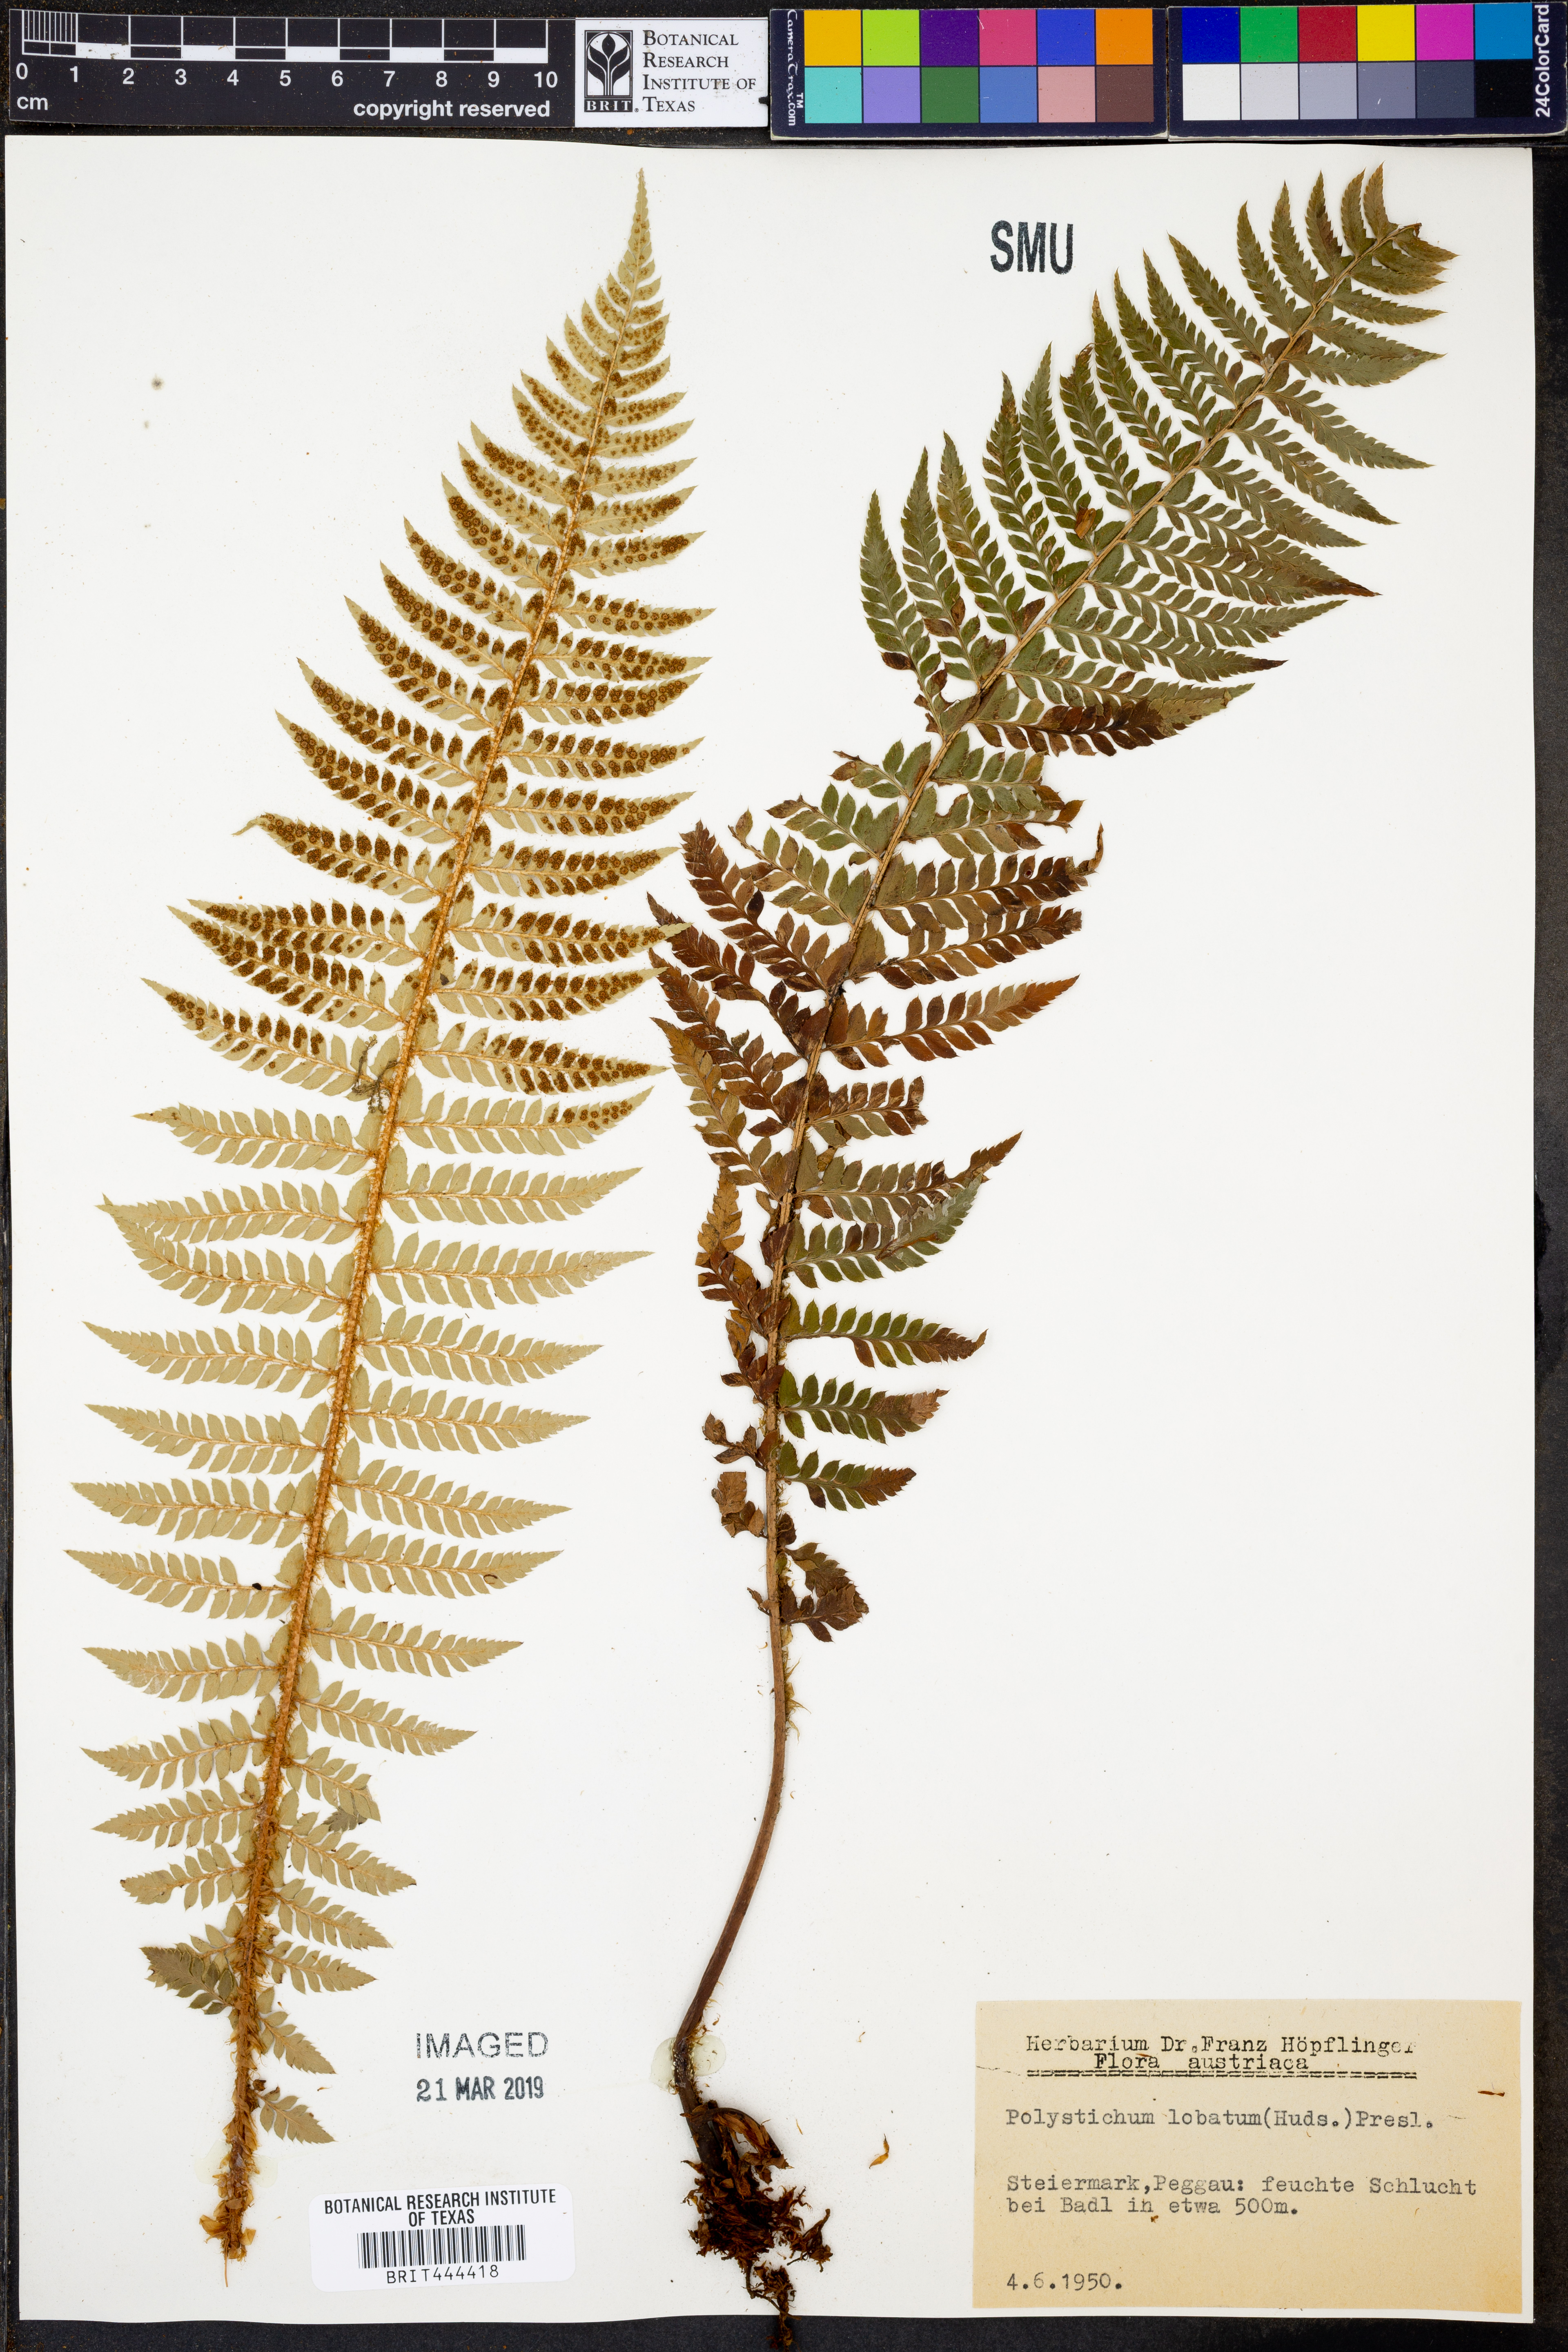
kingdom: Plantae
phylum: Tracheophyta
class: Polypodiopsida
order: Polypodiales
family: Dryopteridaceae
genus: Polystichum
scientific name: Polystichum aculeatum
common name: Hard shield-fern
